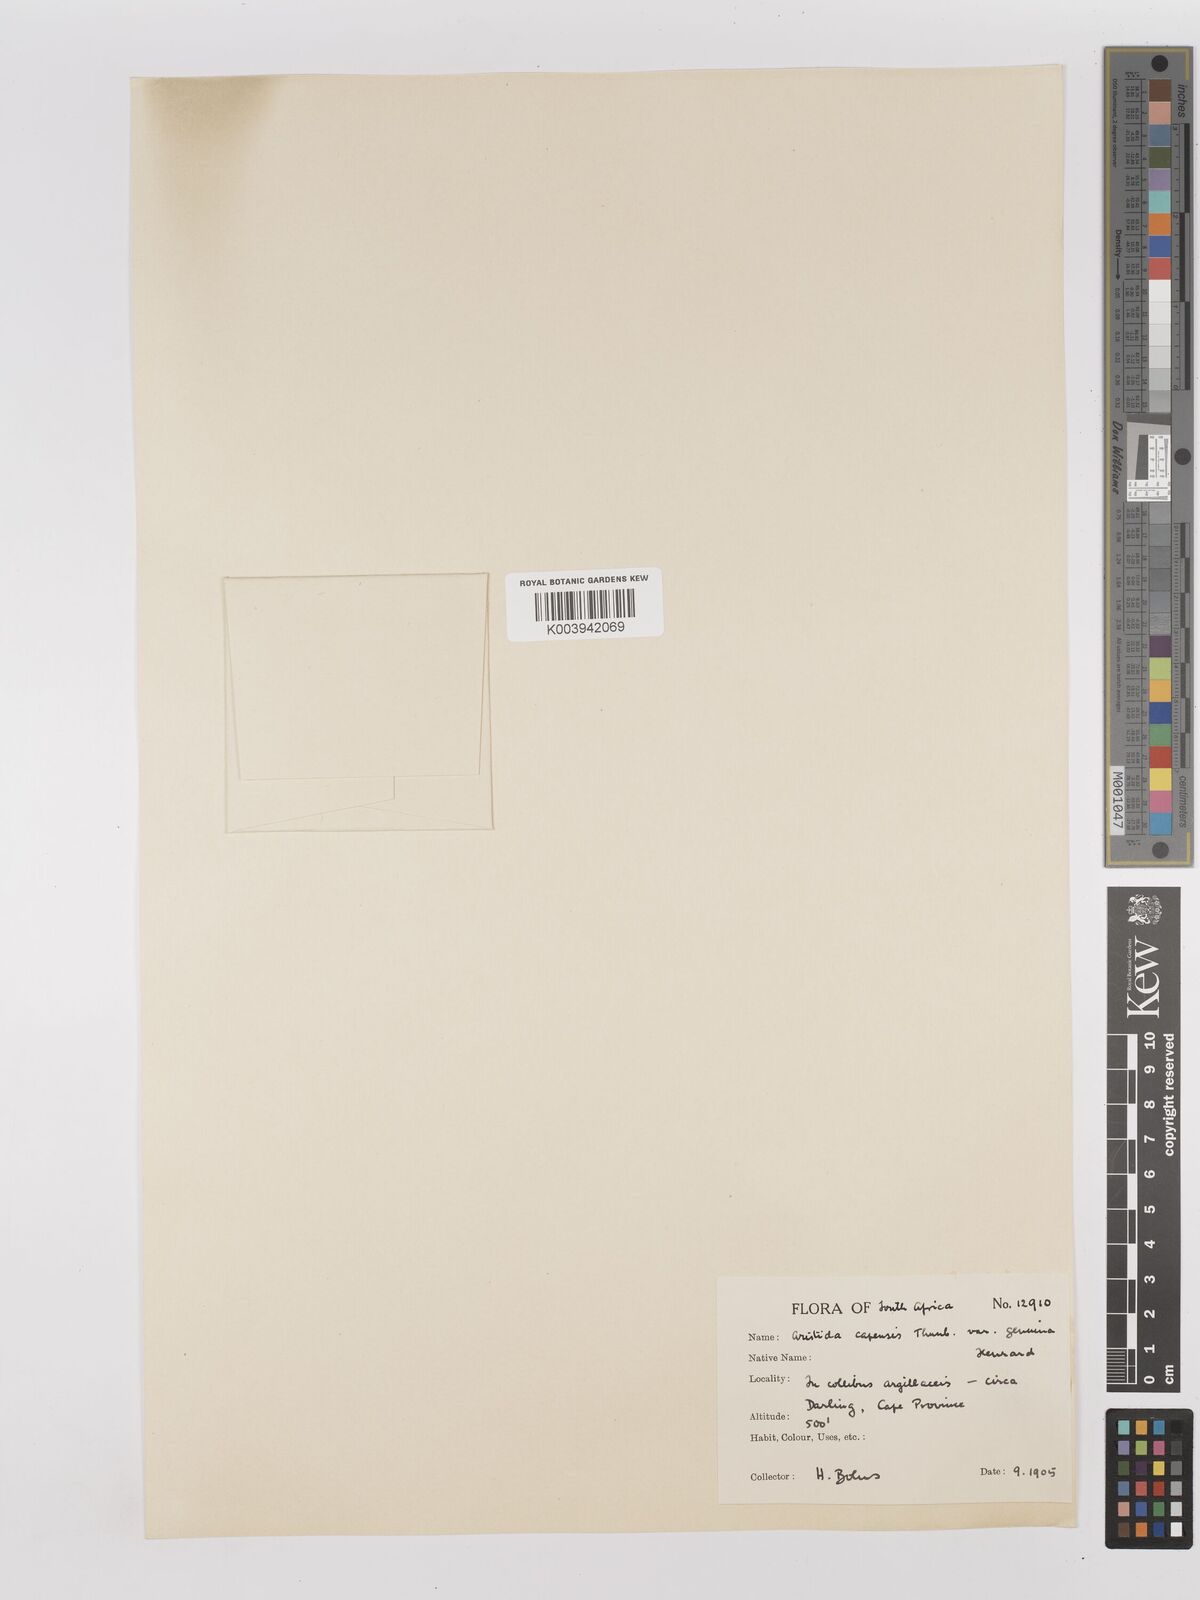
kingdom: Plantae
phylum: Tracheophyta
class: Liliopsida
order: Poales
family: Poaceae
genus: Stipagrostis
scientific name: Stipagrostis zeyheri
